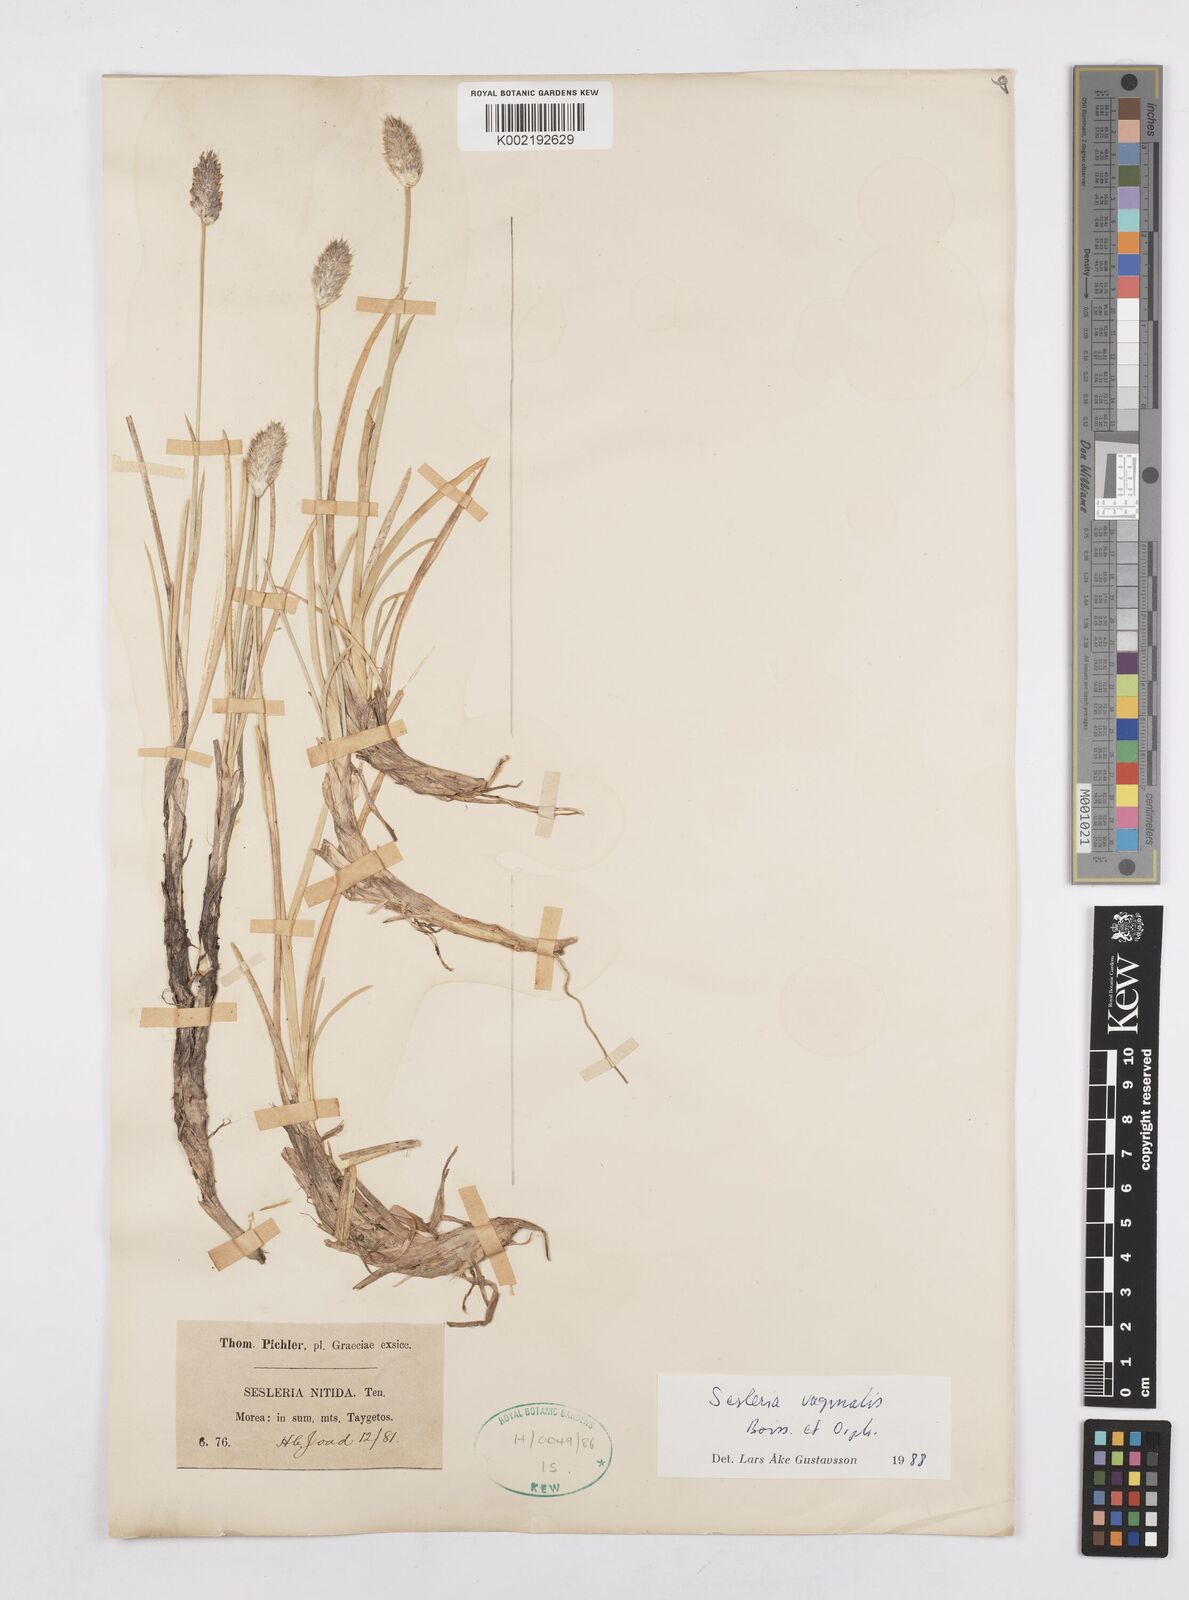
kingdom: Plantae
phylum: Tracheophyta
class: Liliopsida
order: Poales
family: Poaceae
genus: Sesleria
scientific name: Sesleria vaginalis
